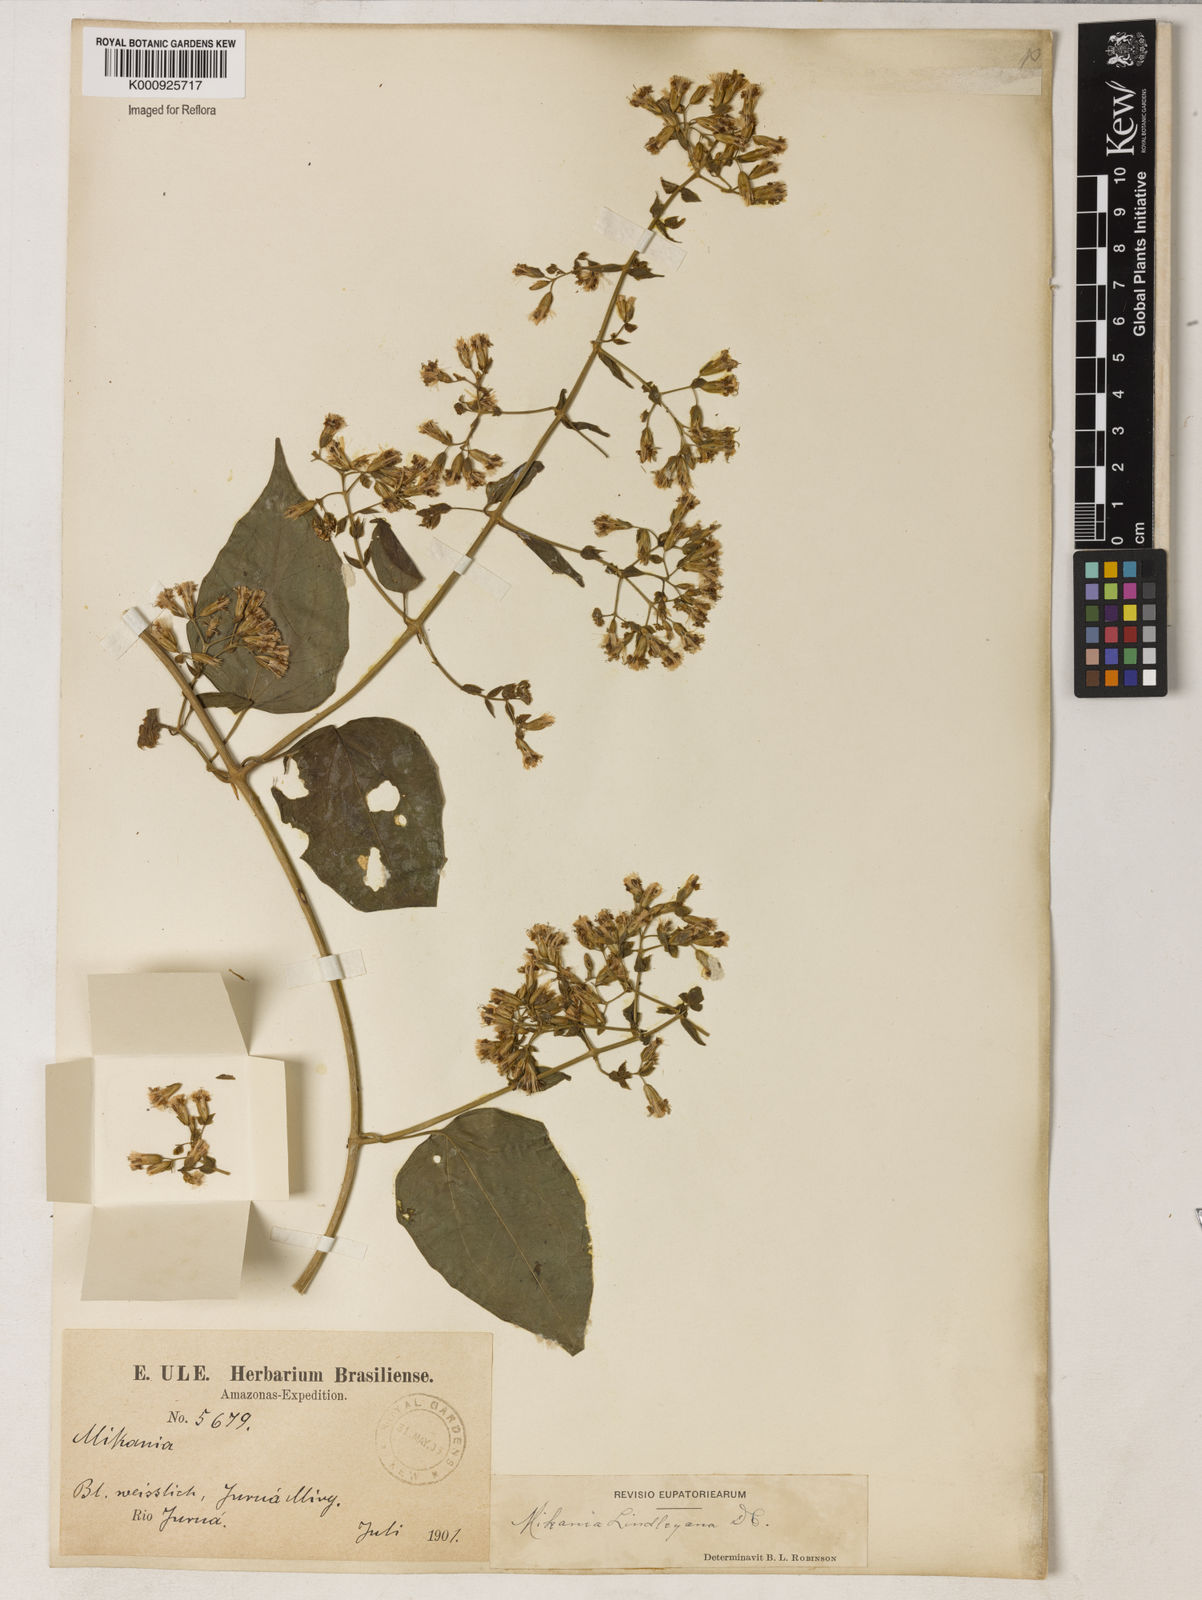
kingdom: Plantae
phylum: Tracheophyta
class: Magnoliopsida
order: Asterales
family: Asteraceae
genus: Mikania
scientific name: Mikania lindleyana
